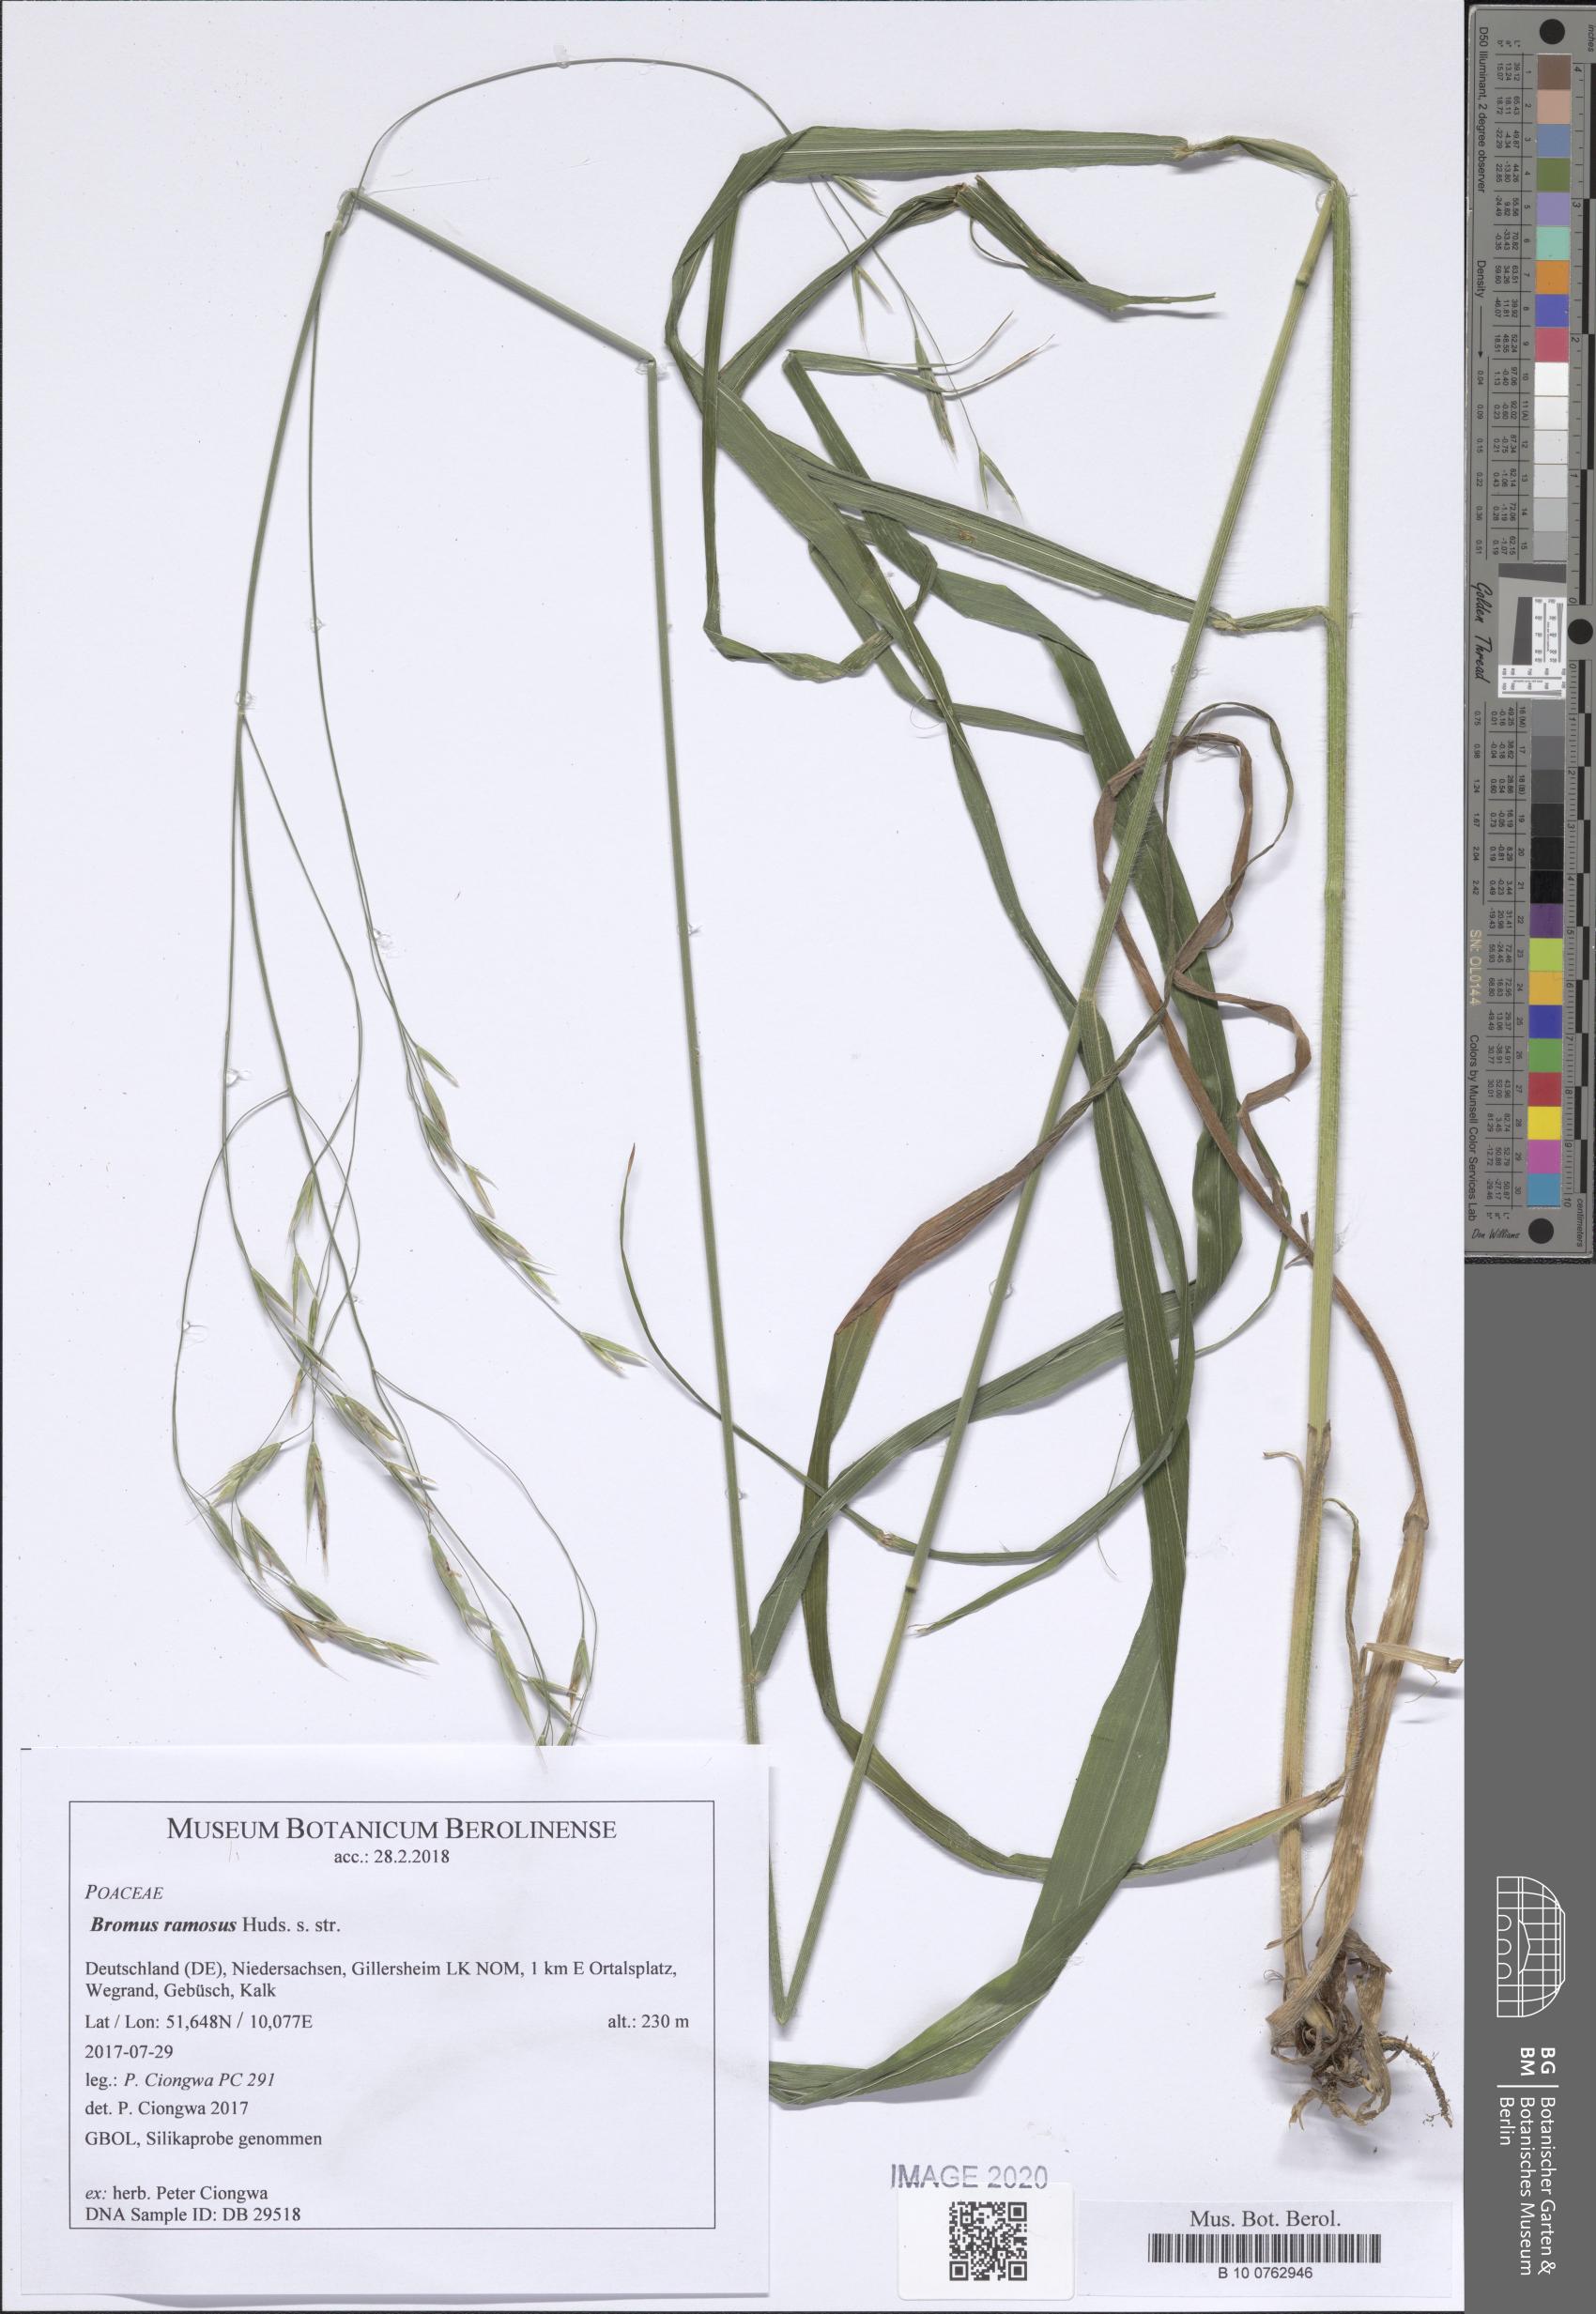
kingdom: Plantae
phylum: Tracheophyta
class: Liliopsida
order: Poales
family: Poaceae
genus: Bromus
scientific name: Bromus ramosus
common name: Hairy brome
